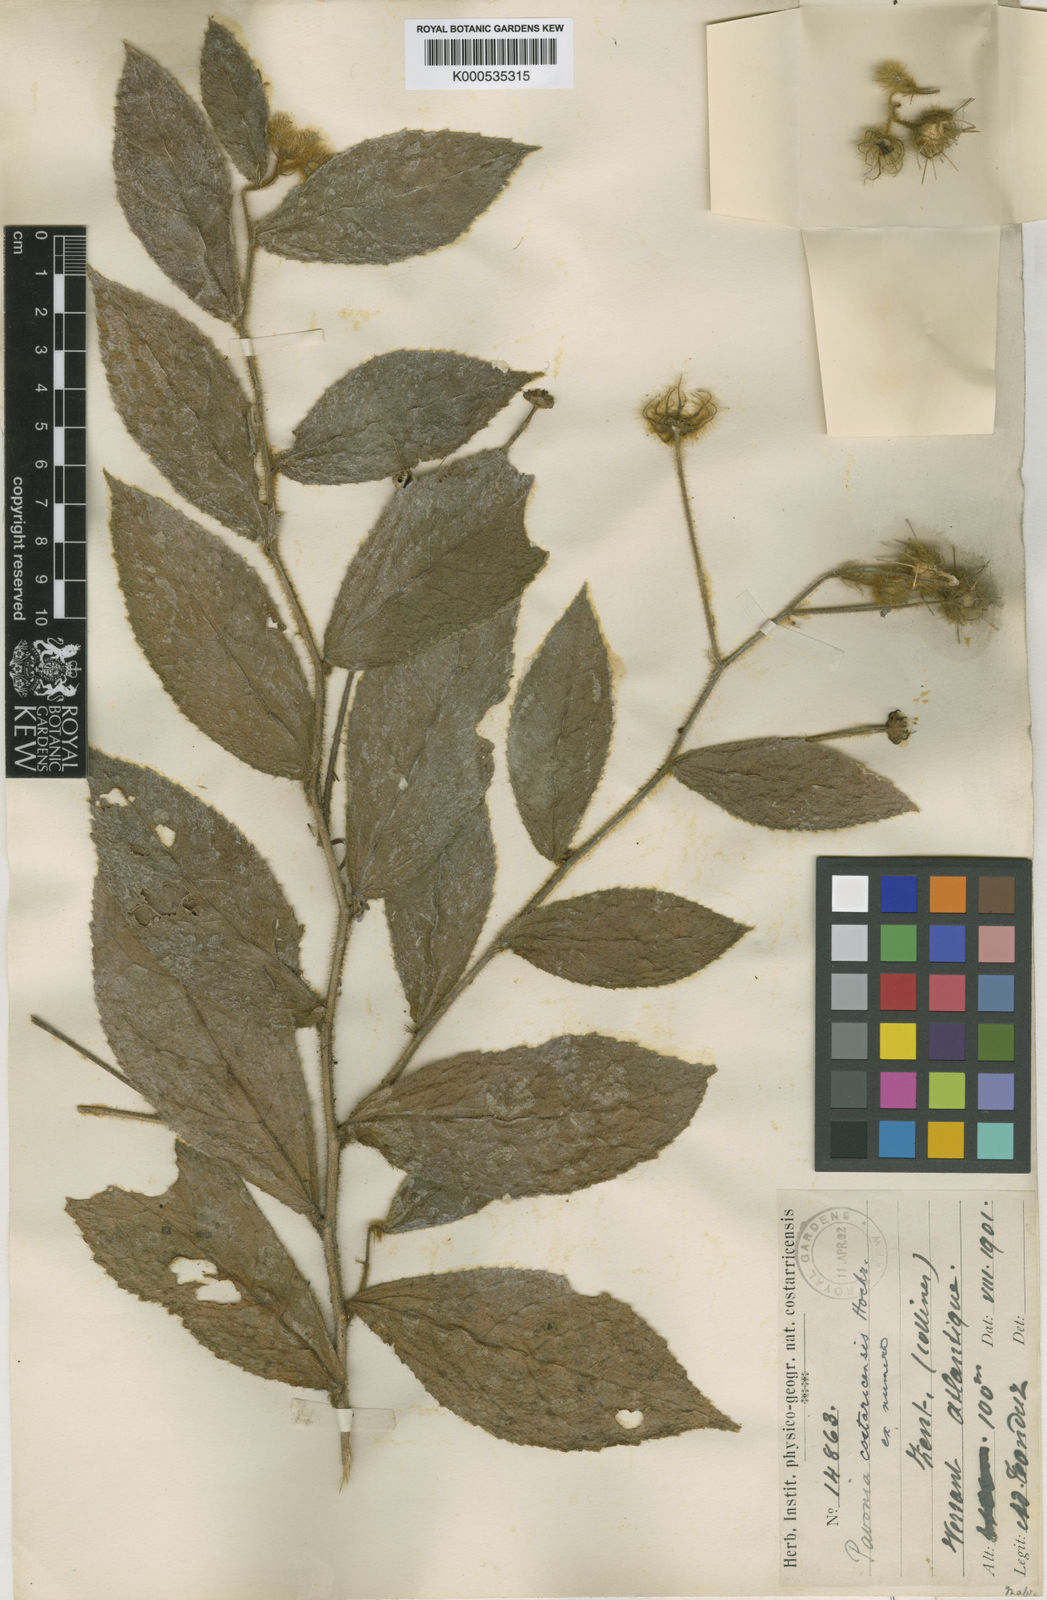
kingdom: Plantae
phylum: Tracheophyta
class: Magnoliopsida
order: Malvales
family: Malvaceae
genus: Pavonia
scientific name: Pavonia oxyphyllaria
